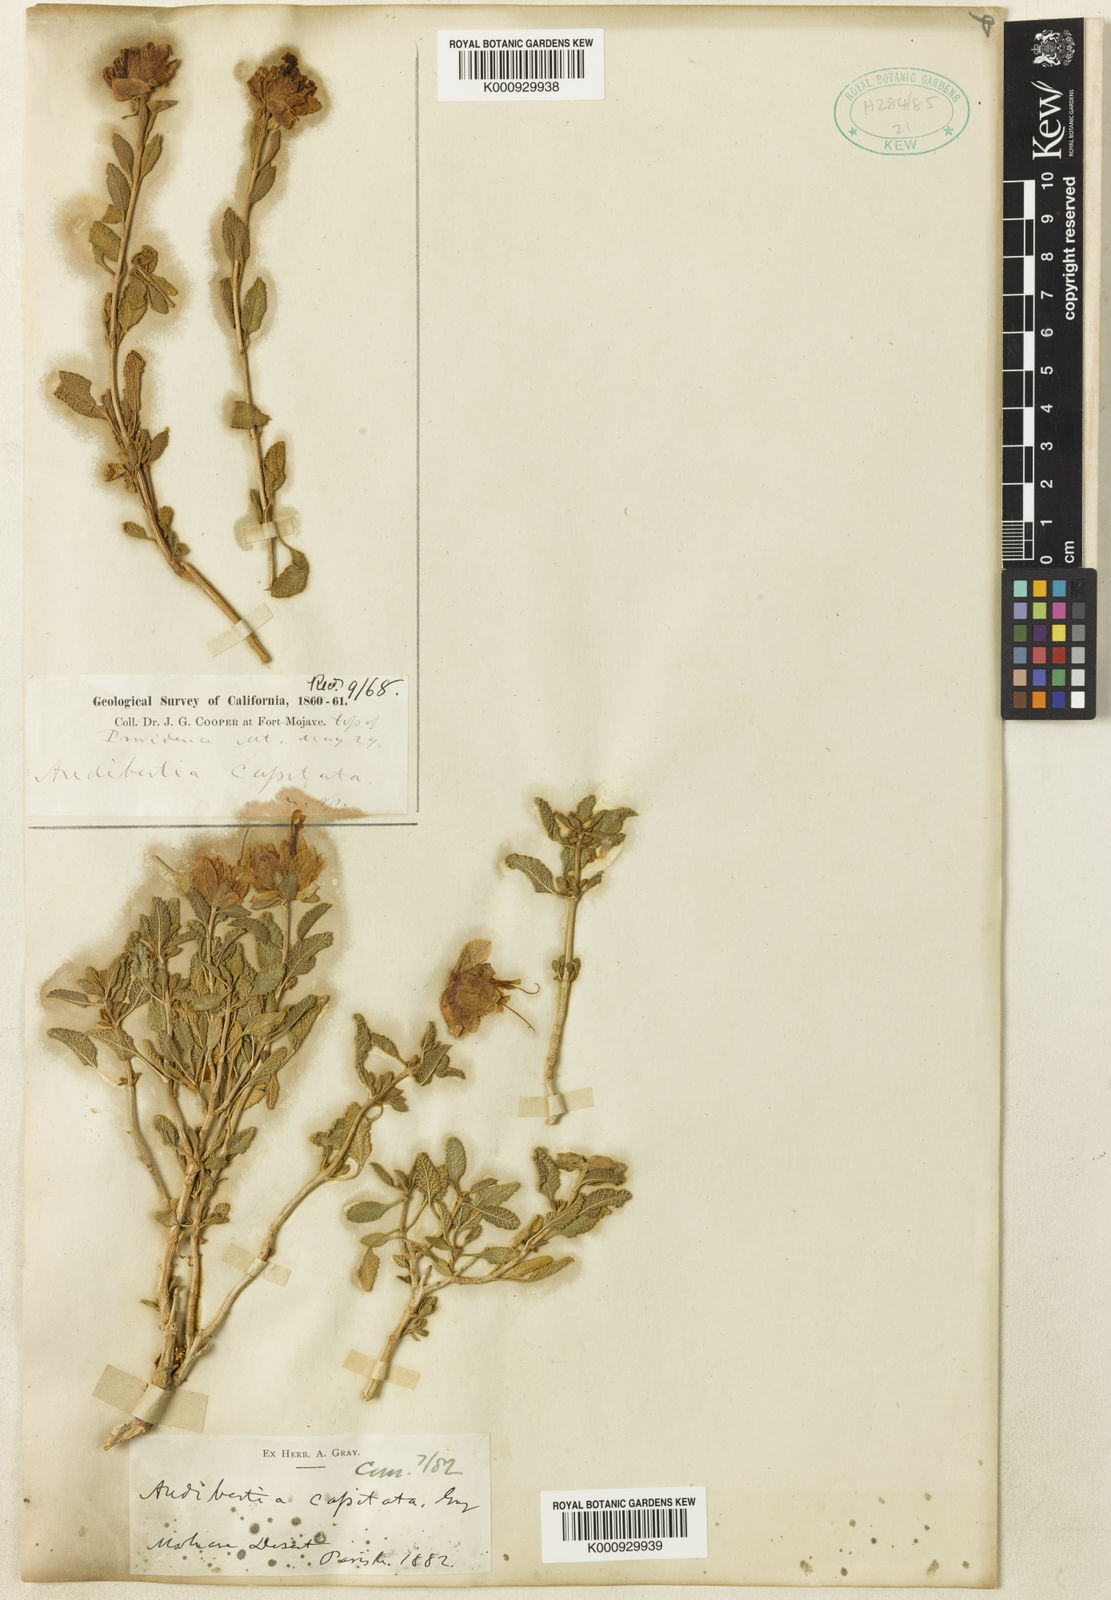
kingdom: Plantae
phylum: Tracheophyta
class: Magnoliopsida
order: Lamiales
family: Lamiaceae
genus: Salvia
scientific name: Salvia mohavensis
